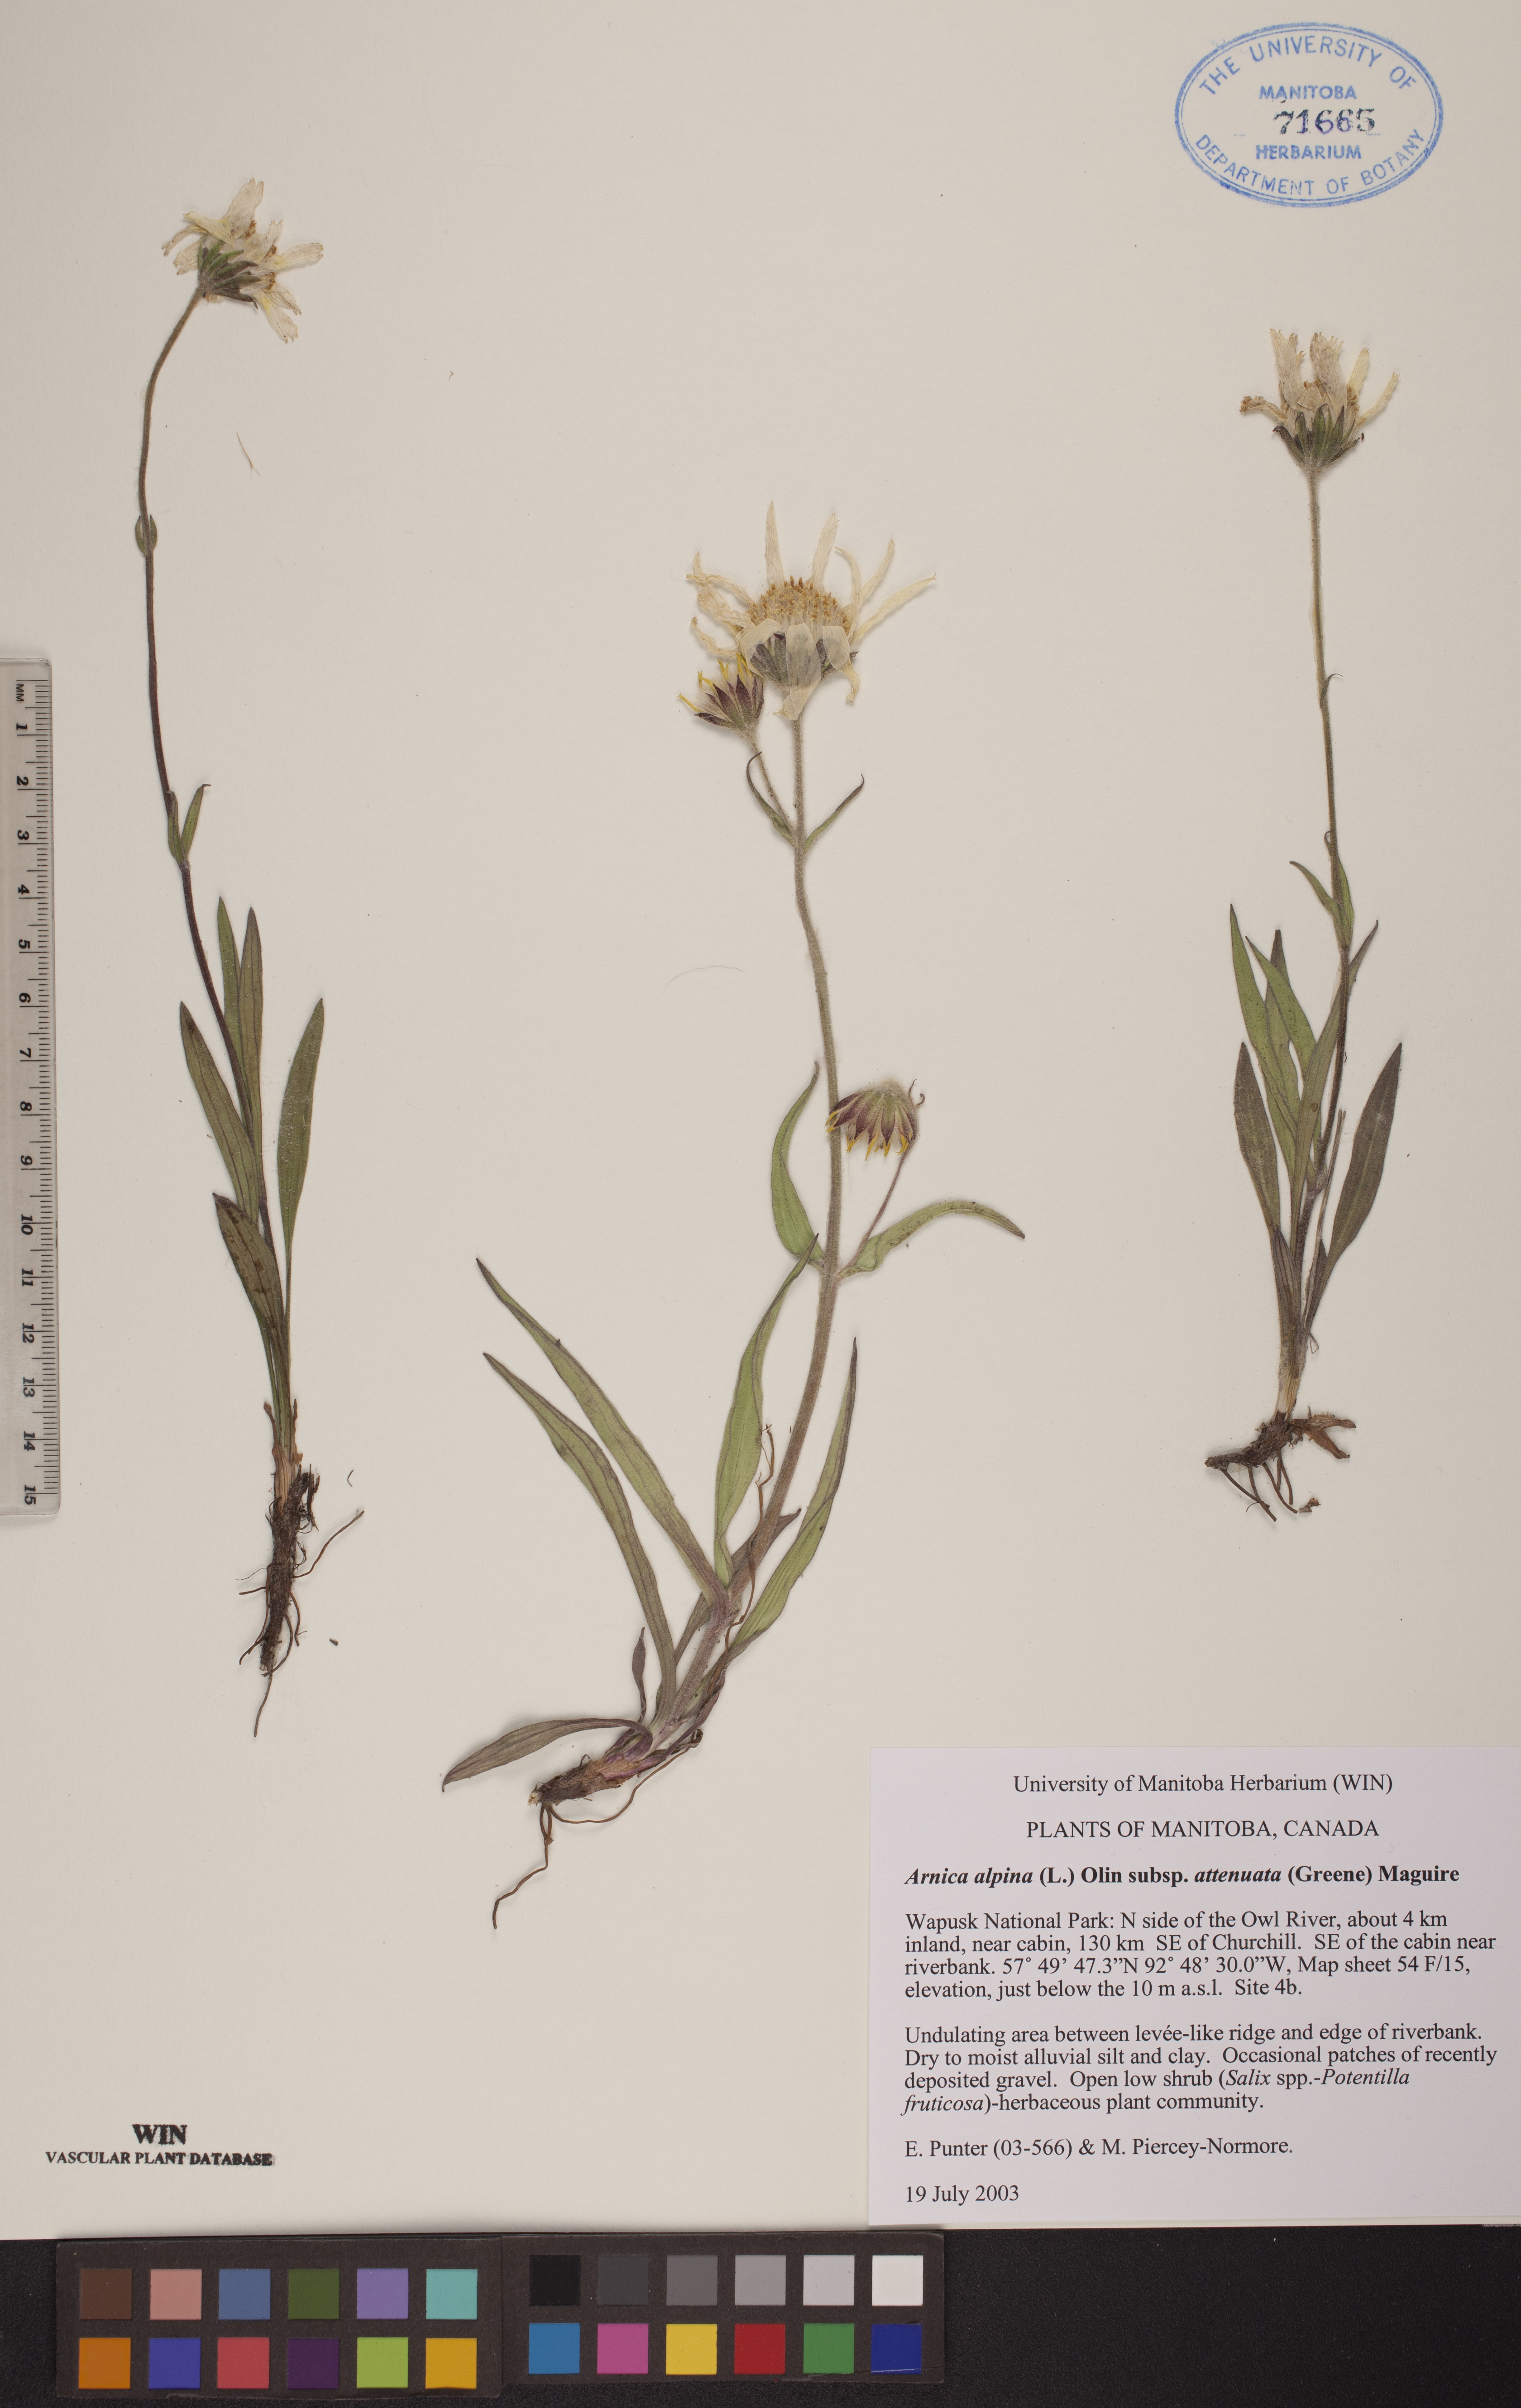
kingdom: Plantae
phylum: Tracheophyta
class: Magnoliopsida
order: Asterales
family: Asteraceae
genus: Arnica
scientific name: Arnica angustifolia
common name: Arctic arnica
